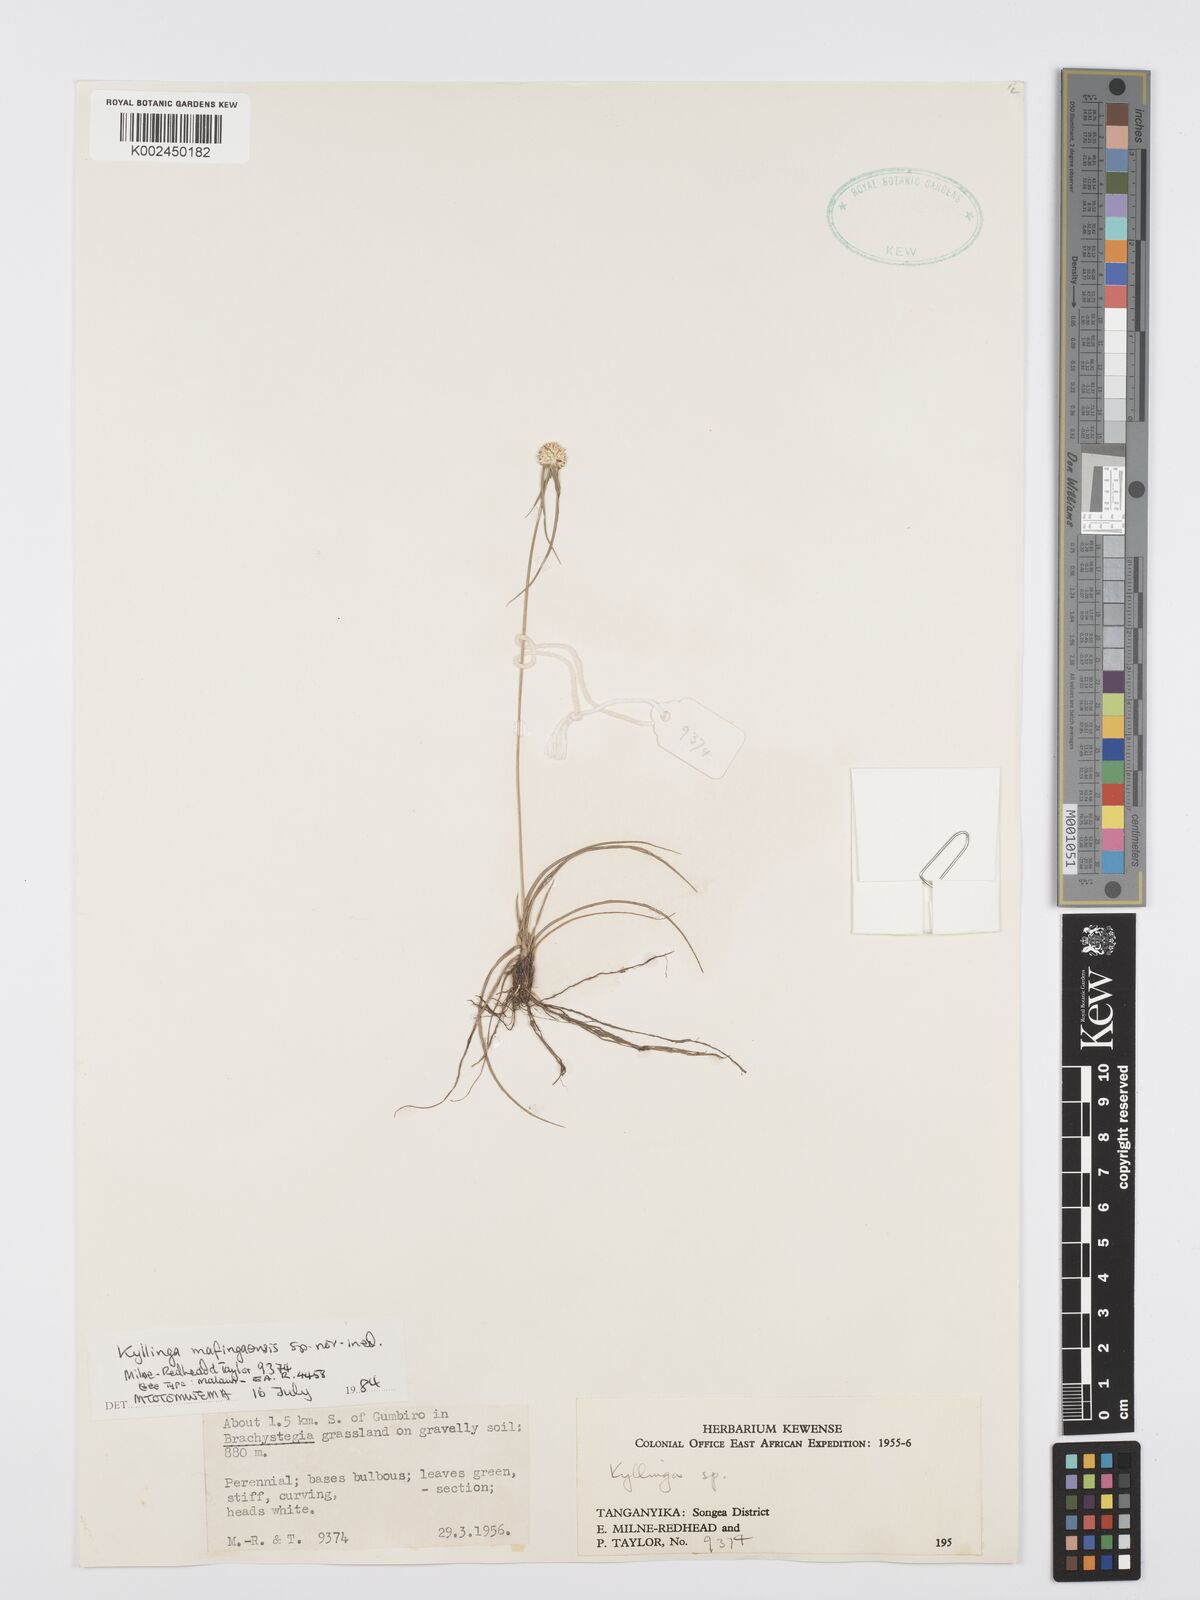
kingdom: Plantae
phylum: Tracheophyta
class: Liliopsida
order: Poales
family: Cyperaceae
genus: Cyperus
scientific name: Cyperus
